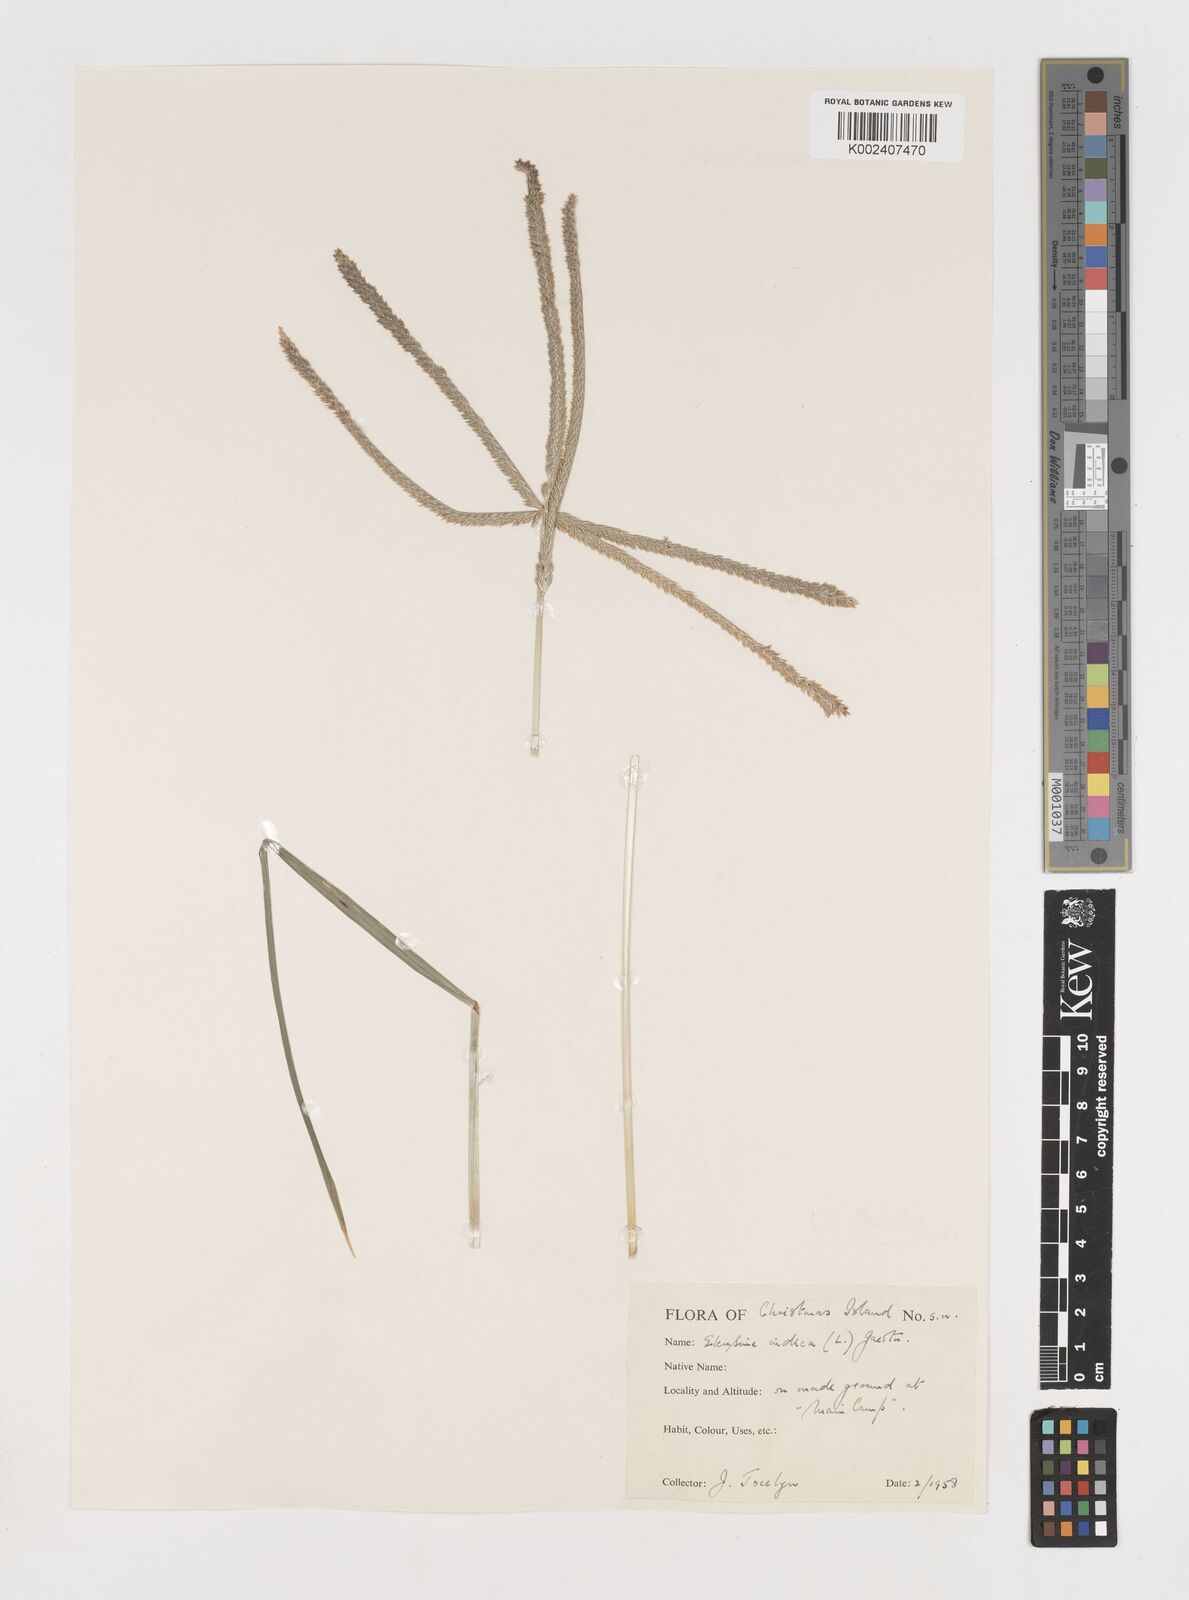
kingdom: Plantae
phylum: Tracheophyta
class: Liliopsida
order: Poales
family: Poaceae
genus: Eleusine
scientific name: Eleusine indica
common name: Yard-grass
